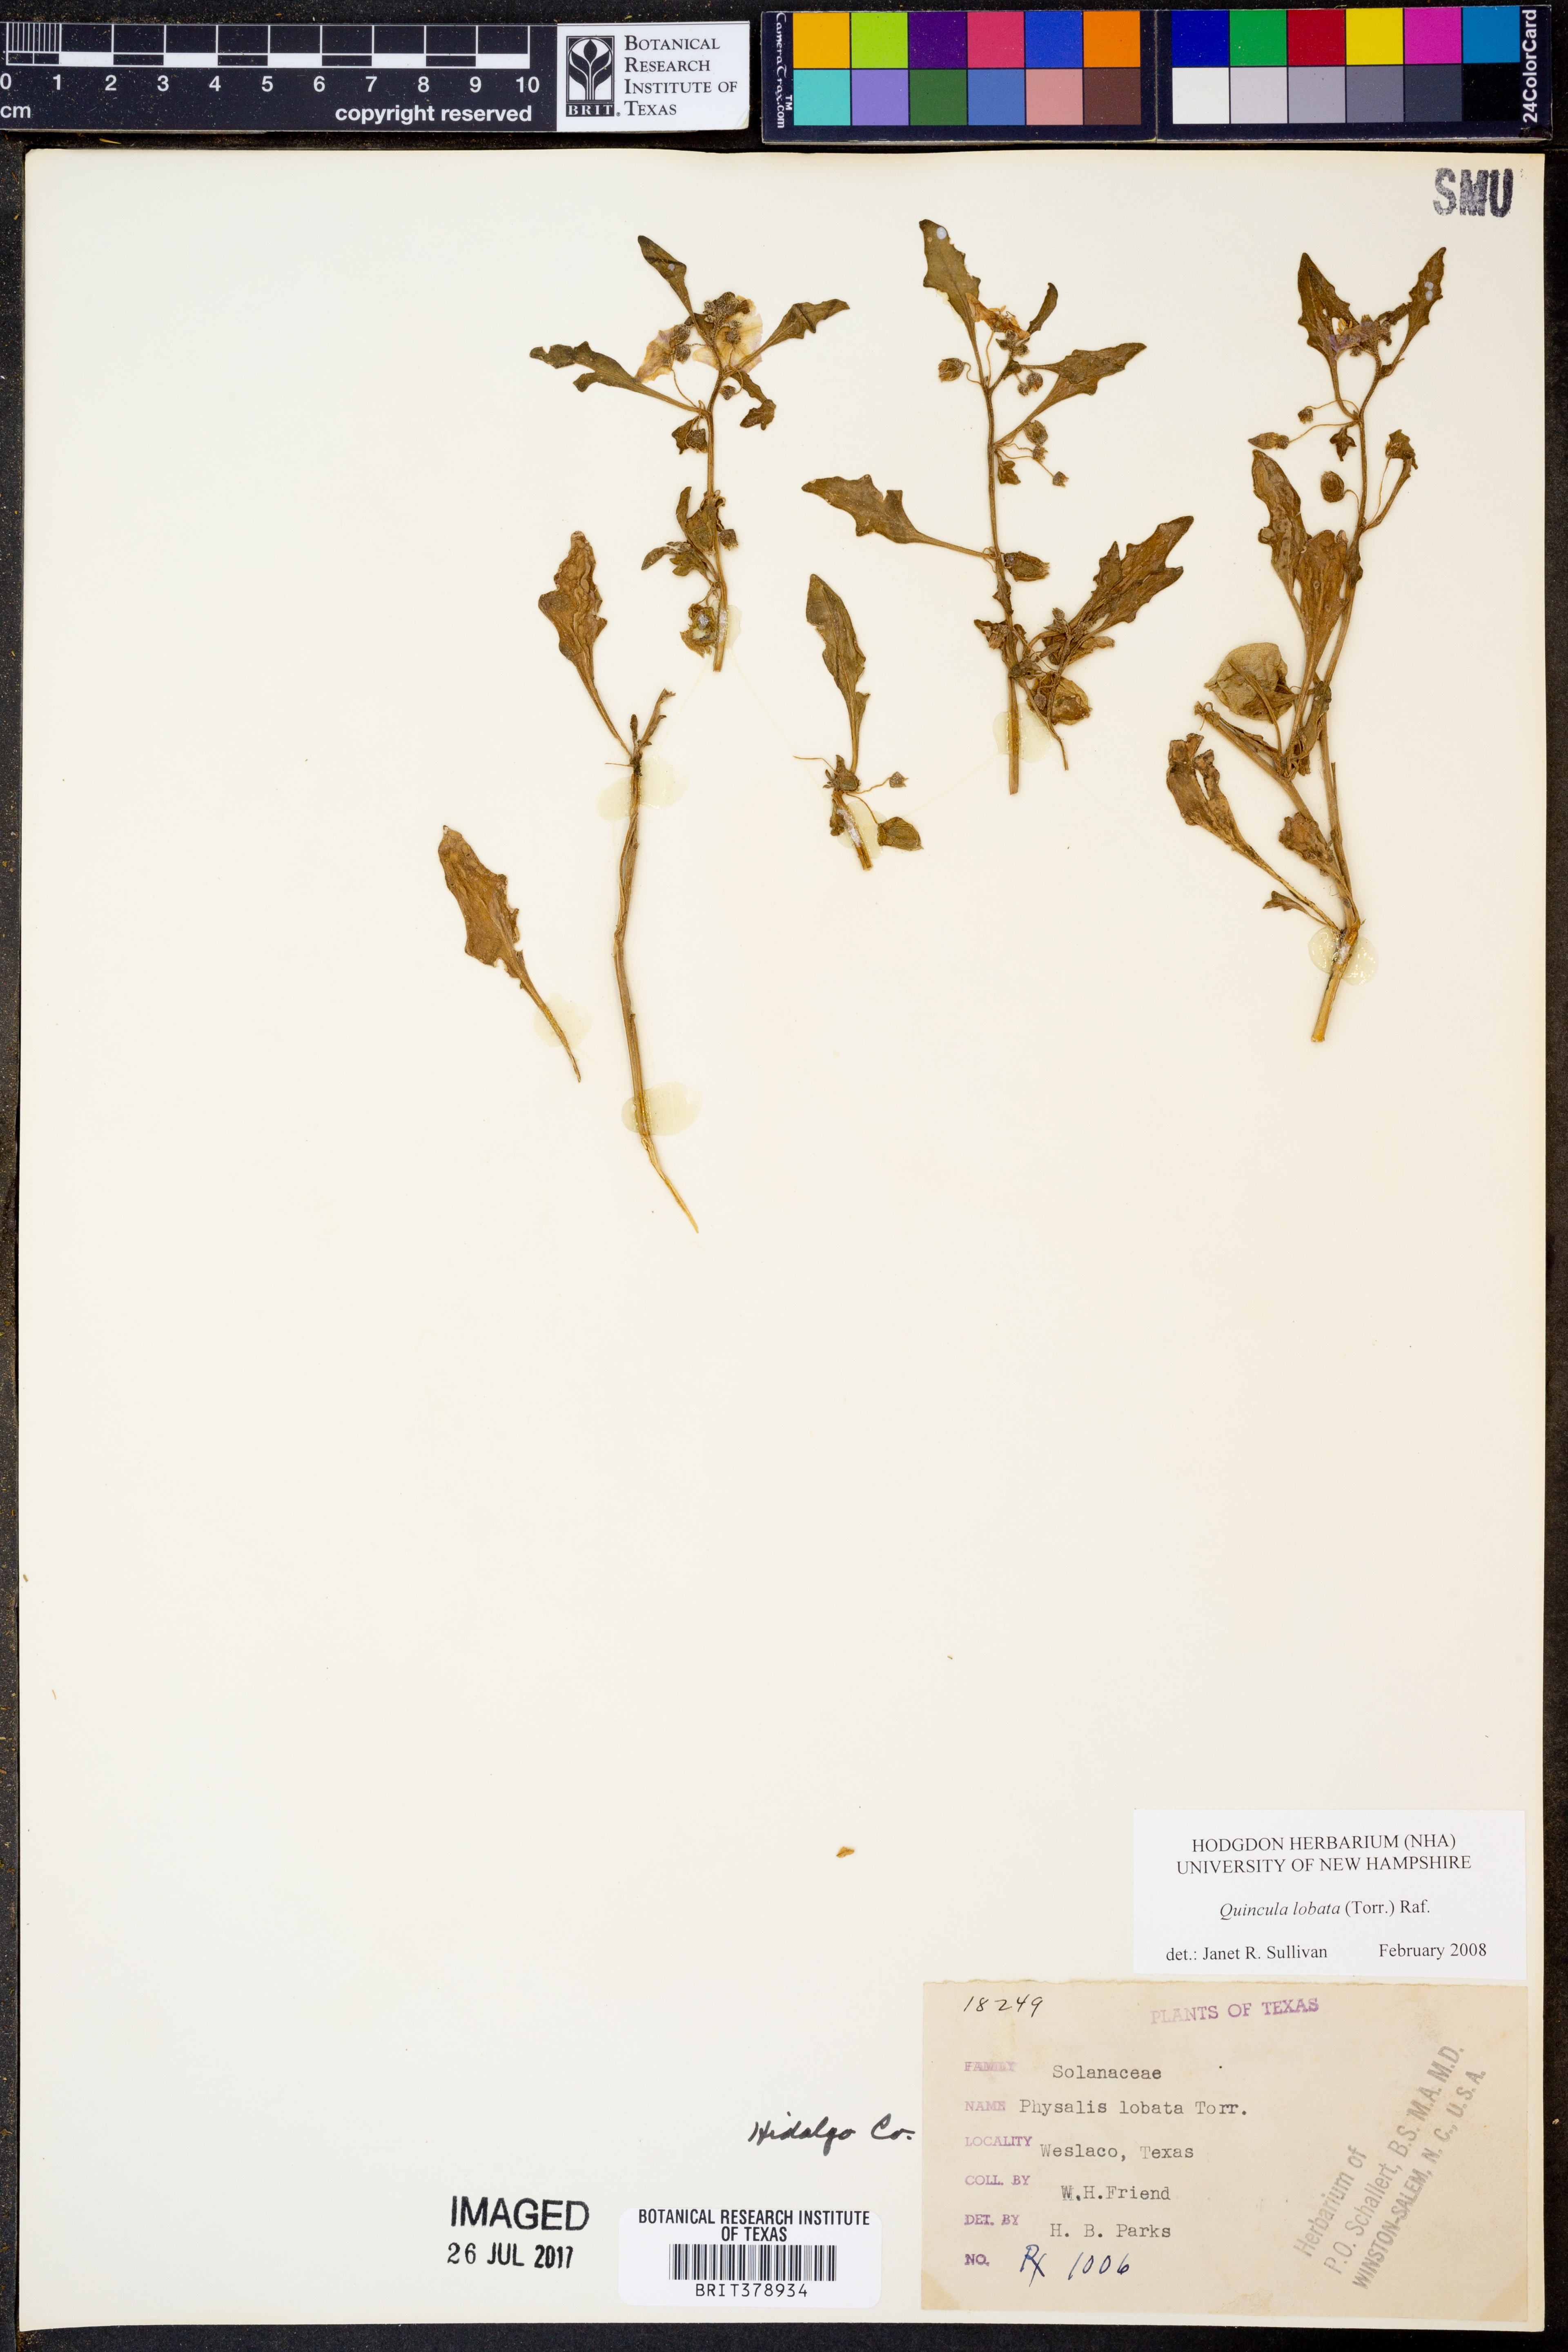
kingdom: Plantae
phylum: Tracheophyta
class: Magnoliopsida
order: Solanales
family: Solanaceae
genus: Quincula
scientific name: Quincula lobata
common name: Purple-ground-cherry
